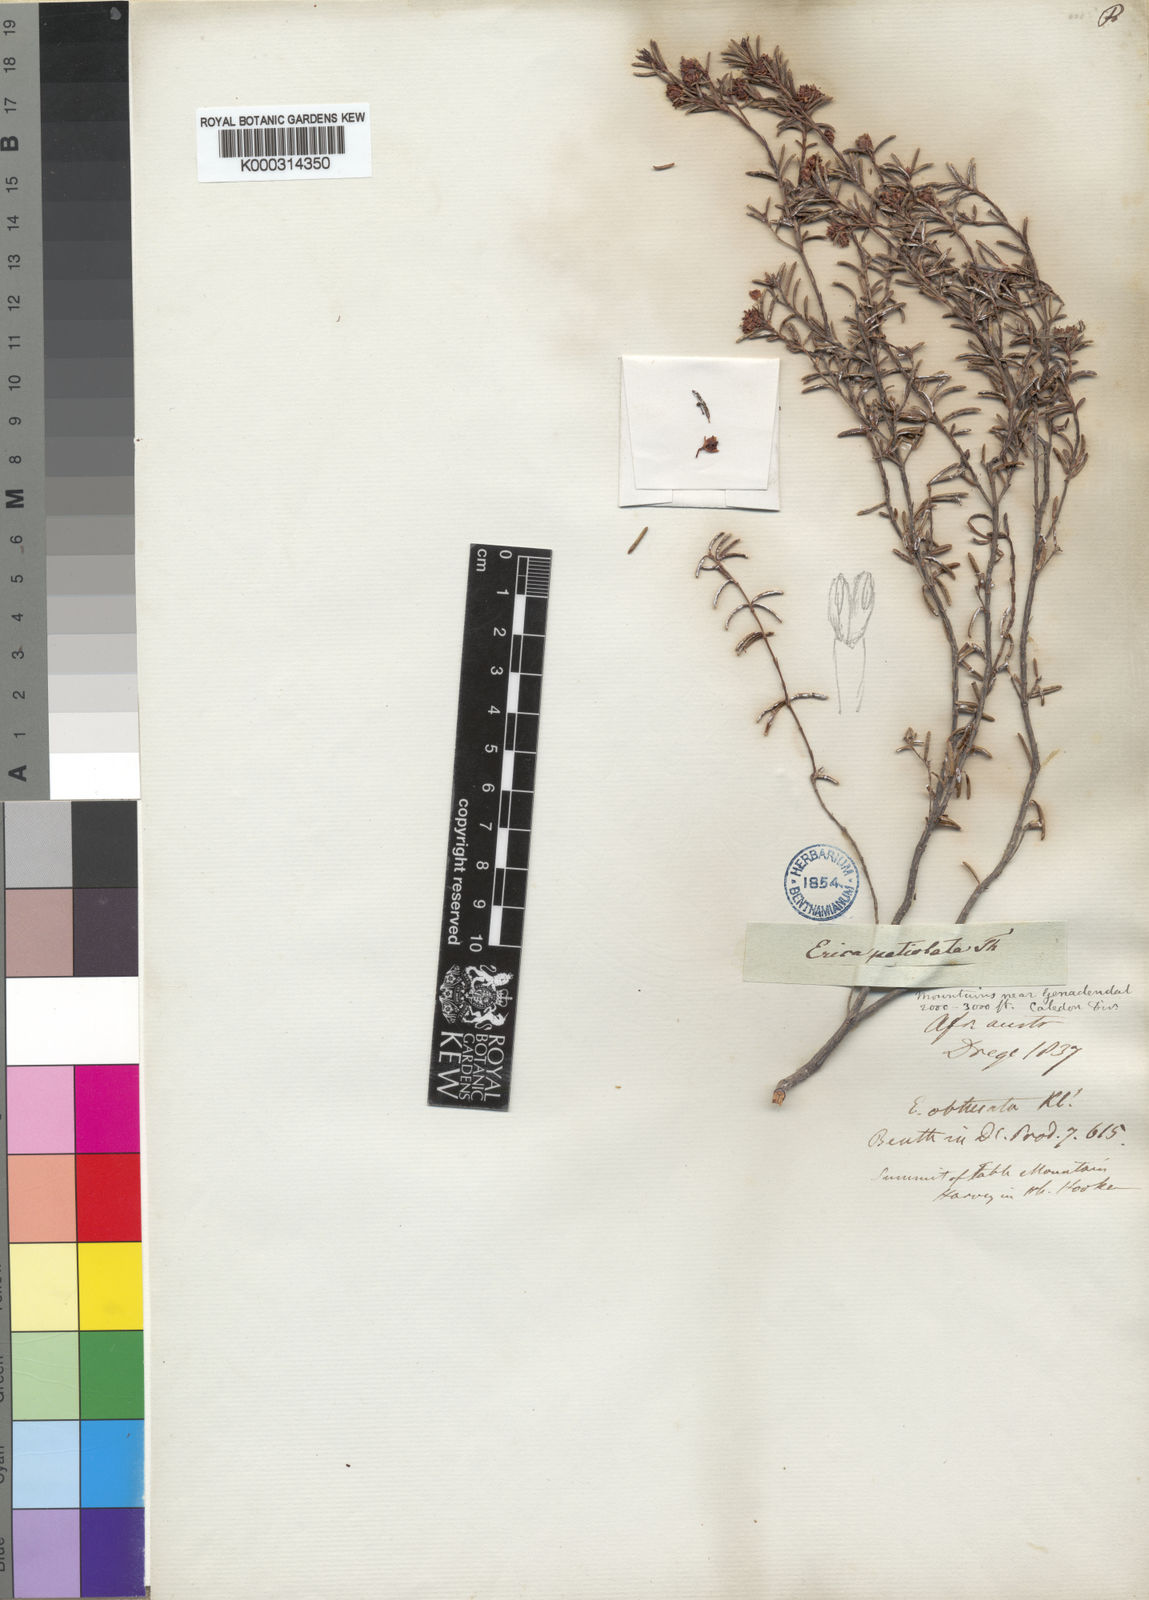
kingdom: Plantae
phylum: Tracheophyta
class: Magnoliopsida
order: Ericales
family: Ericaceae
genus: Erica
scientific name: Erica obtusata
